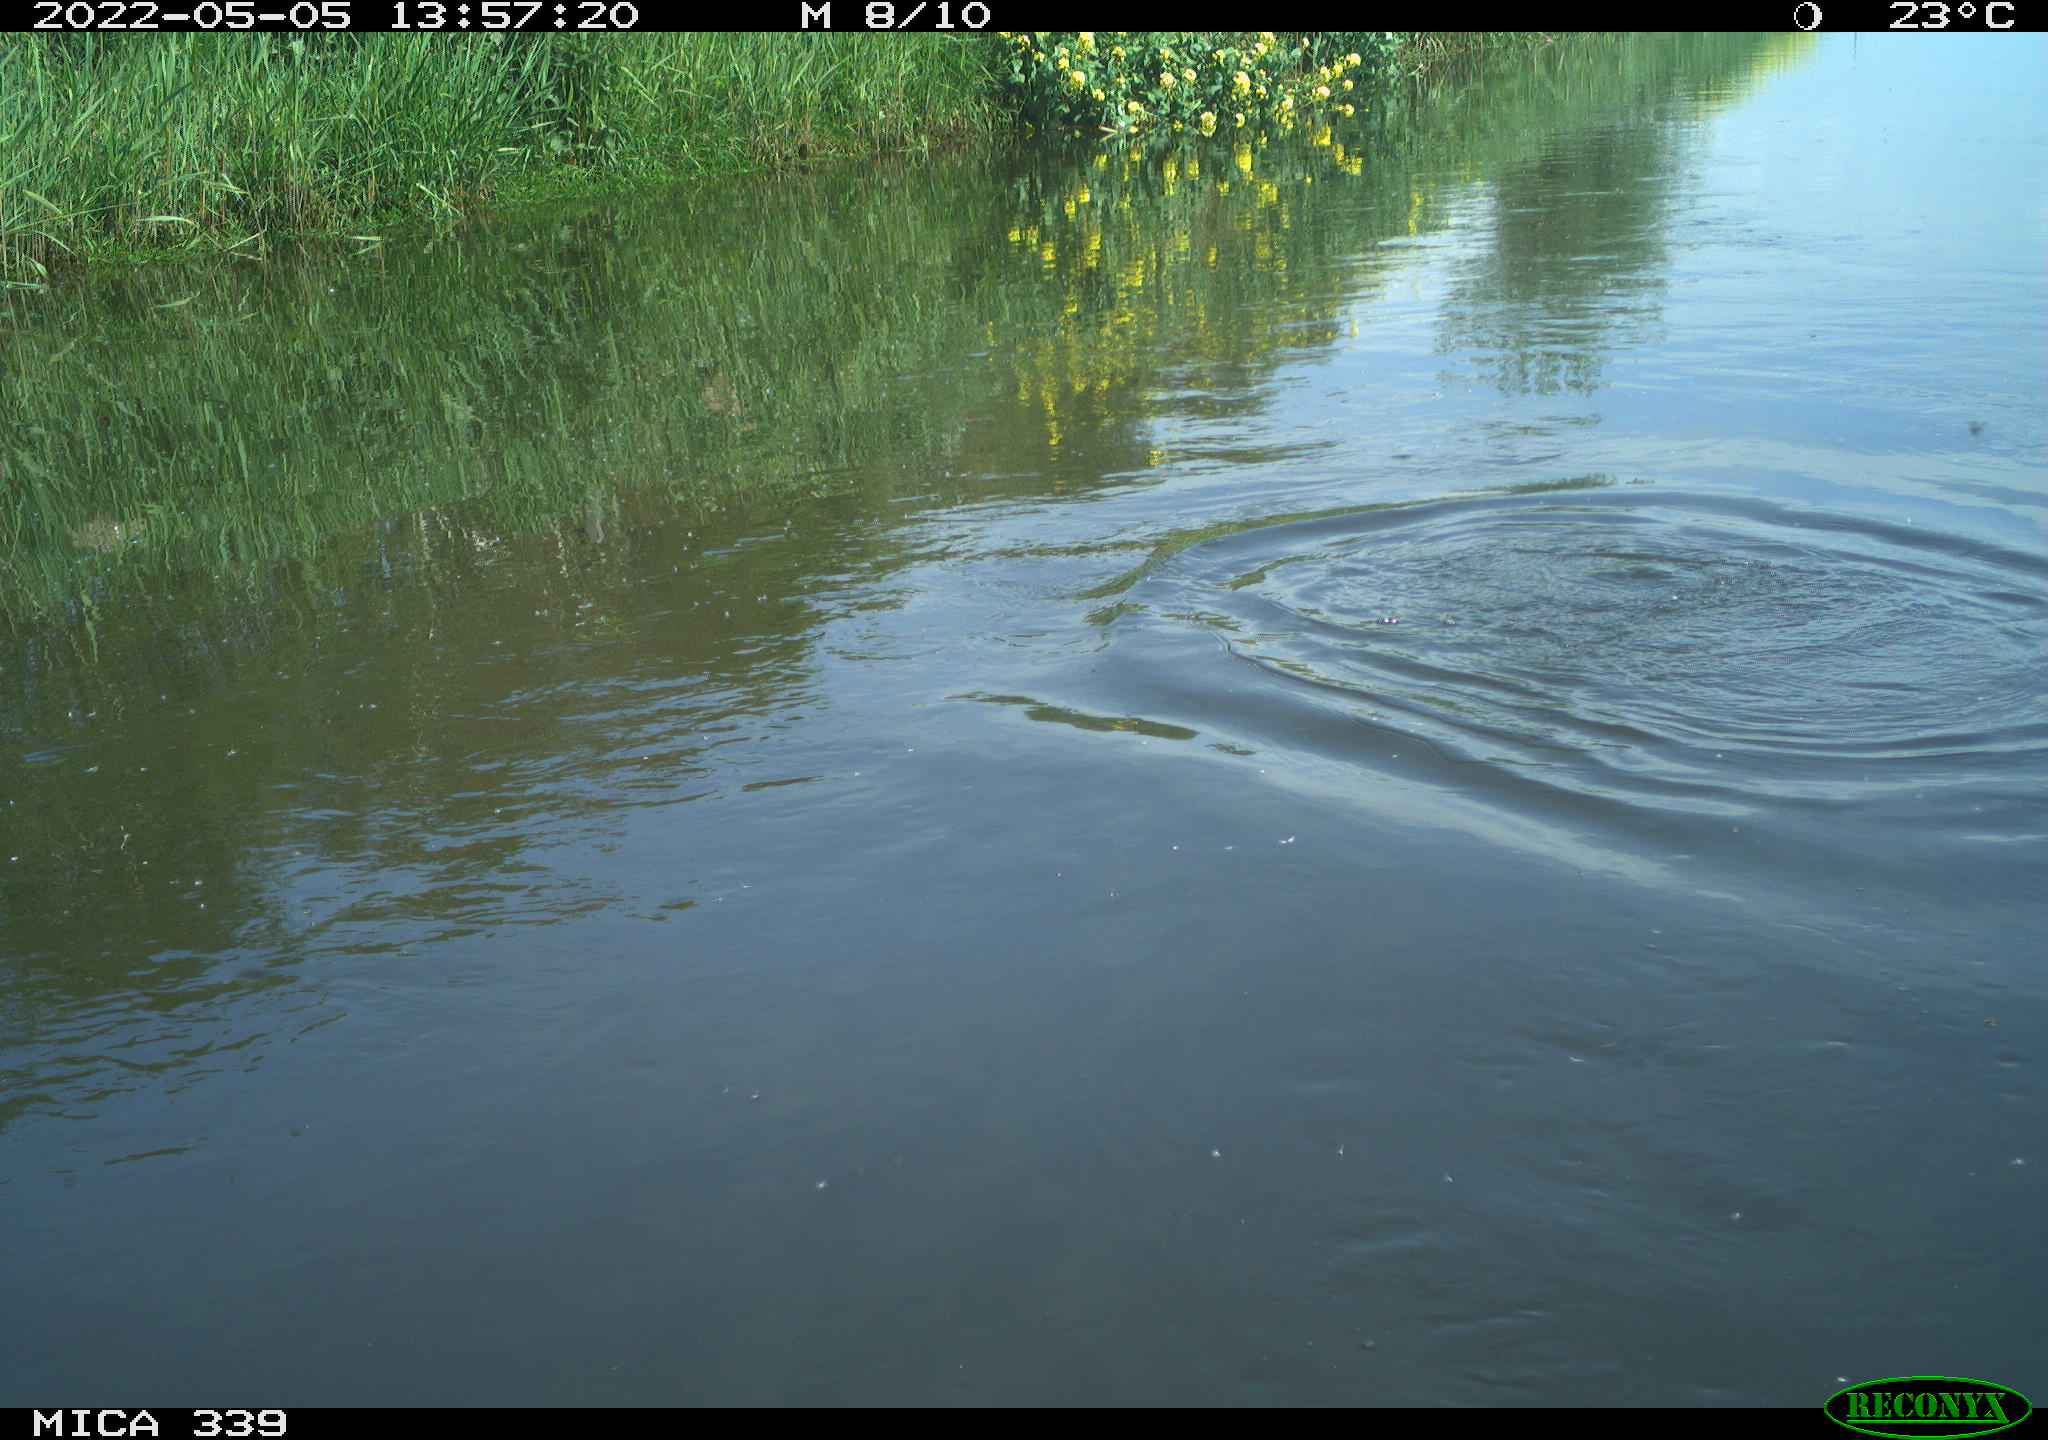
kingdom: Animalia
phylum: Chordata
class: Aves
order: Gruiformes
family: Rallidae
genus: Fulica
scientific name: Fulica atra
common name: Eurasian coot
